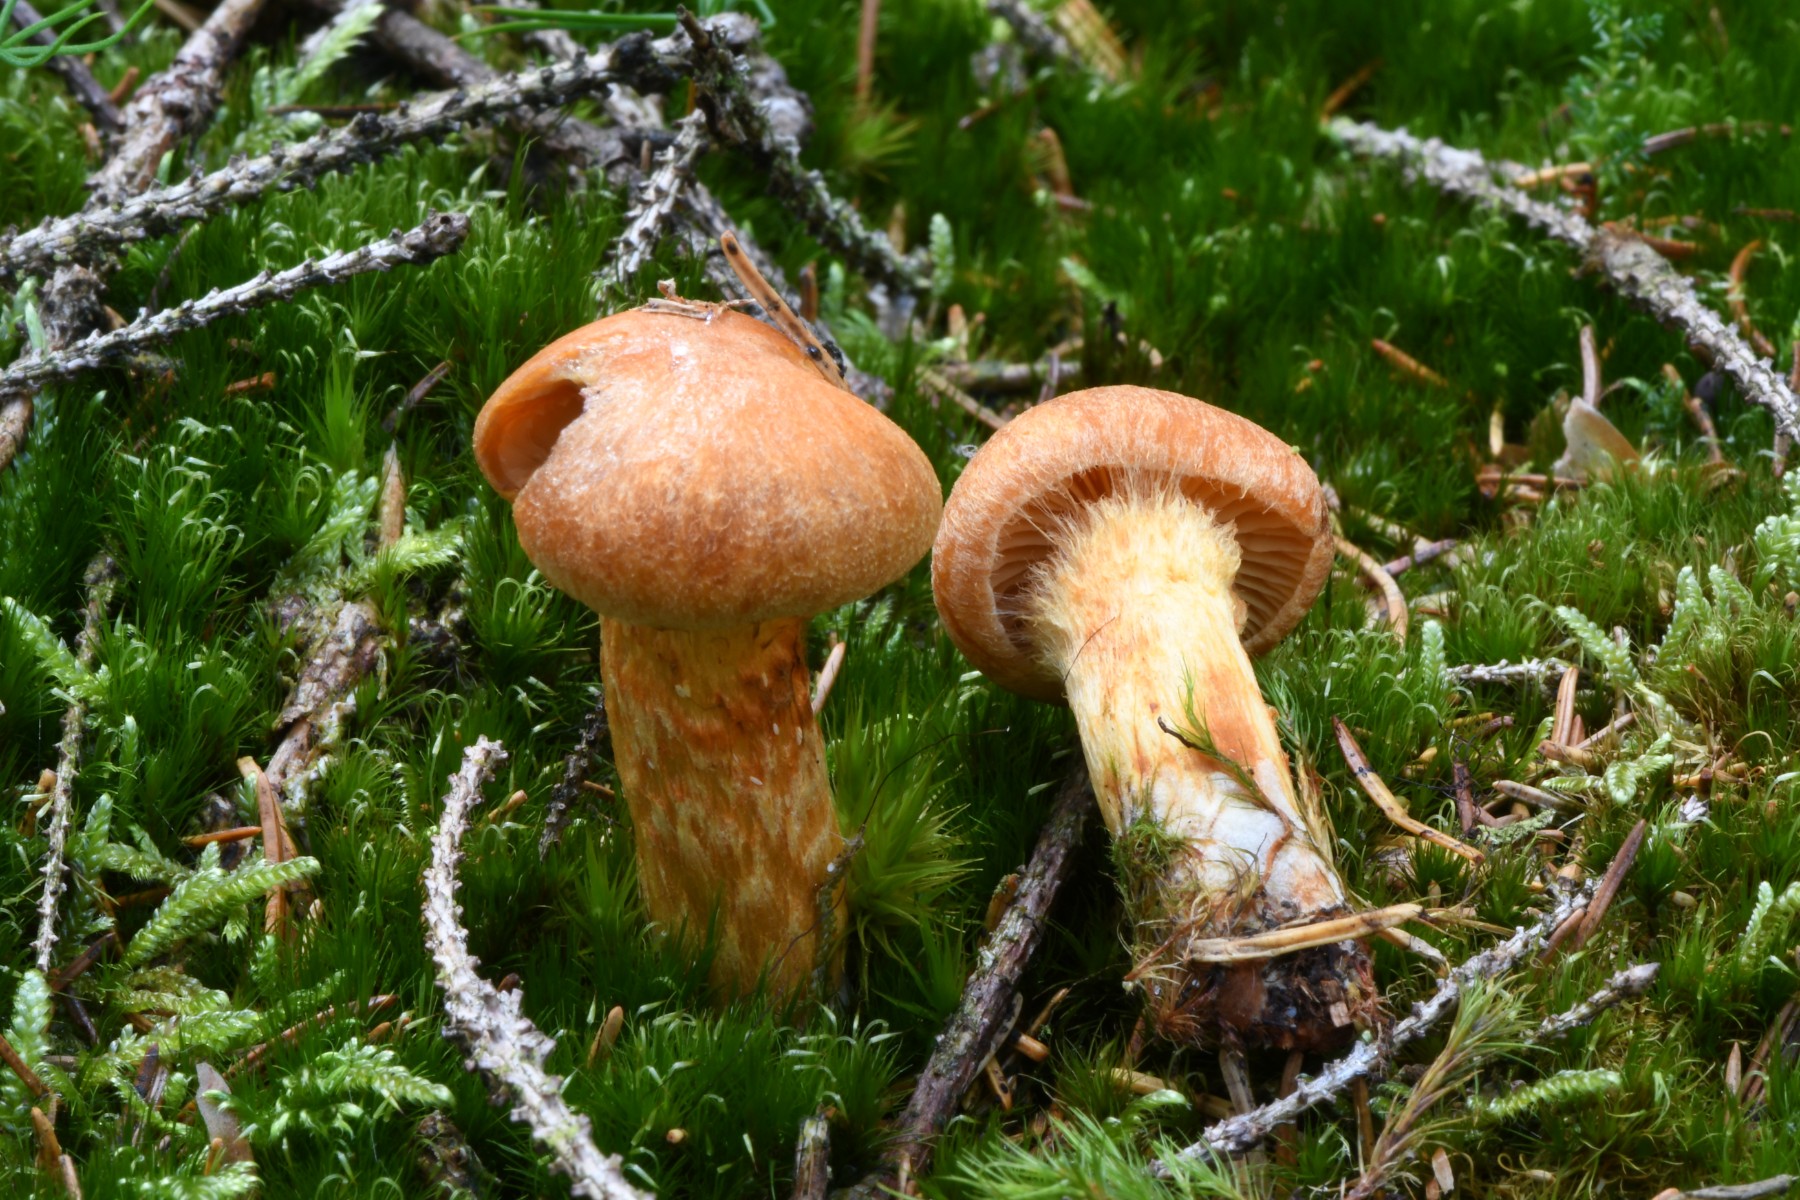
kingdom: Fungi
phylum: Basidiomycota
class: Agaricomycetes
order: Agaricales
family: Cortinariaceae
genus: Aureonarius
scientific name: Aureonarius limonius
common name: orangegul slørhat
